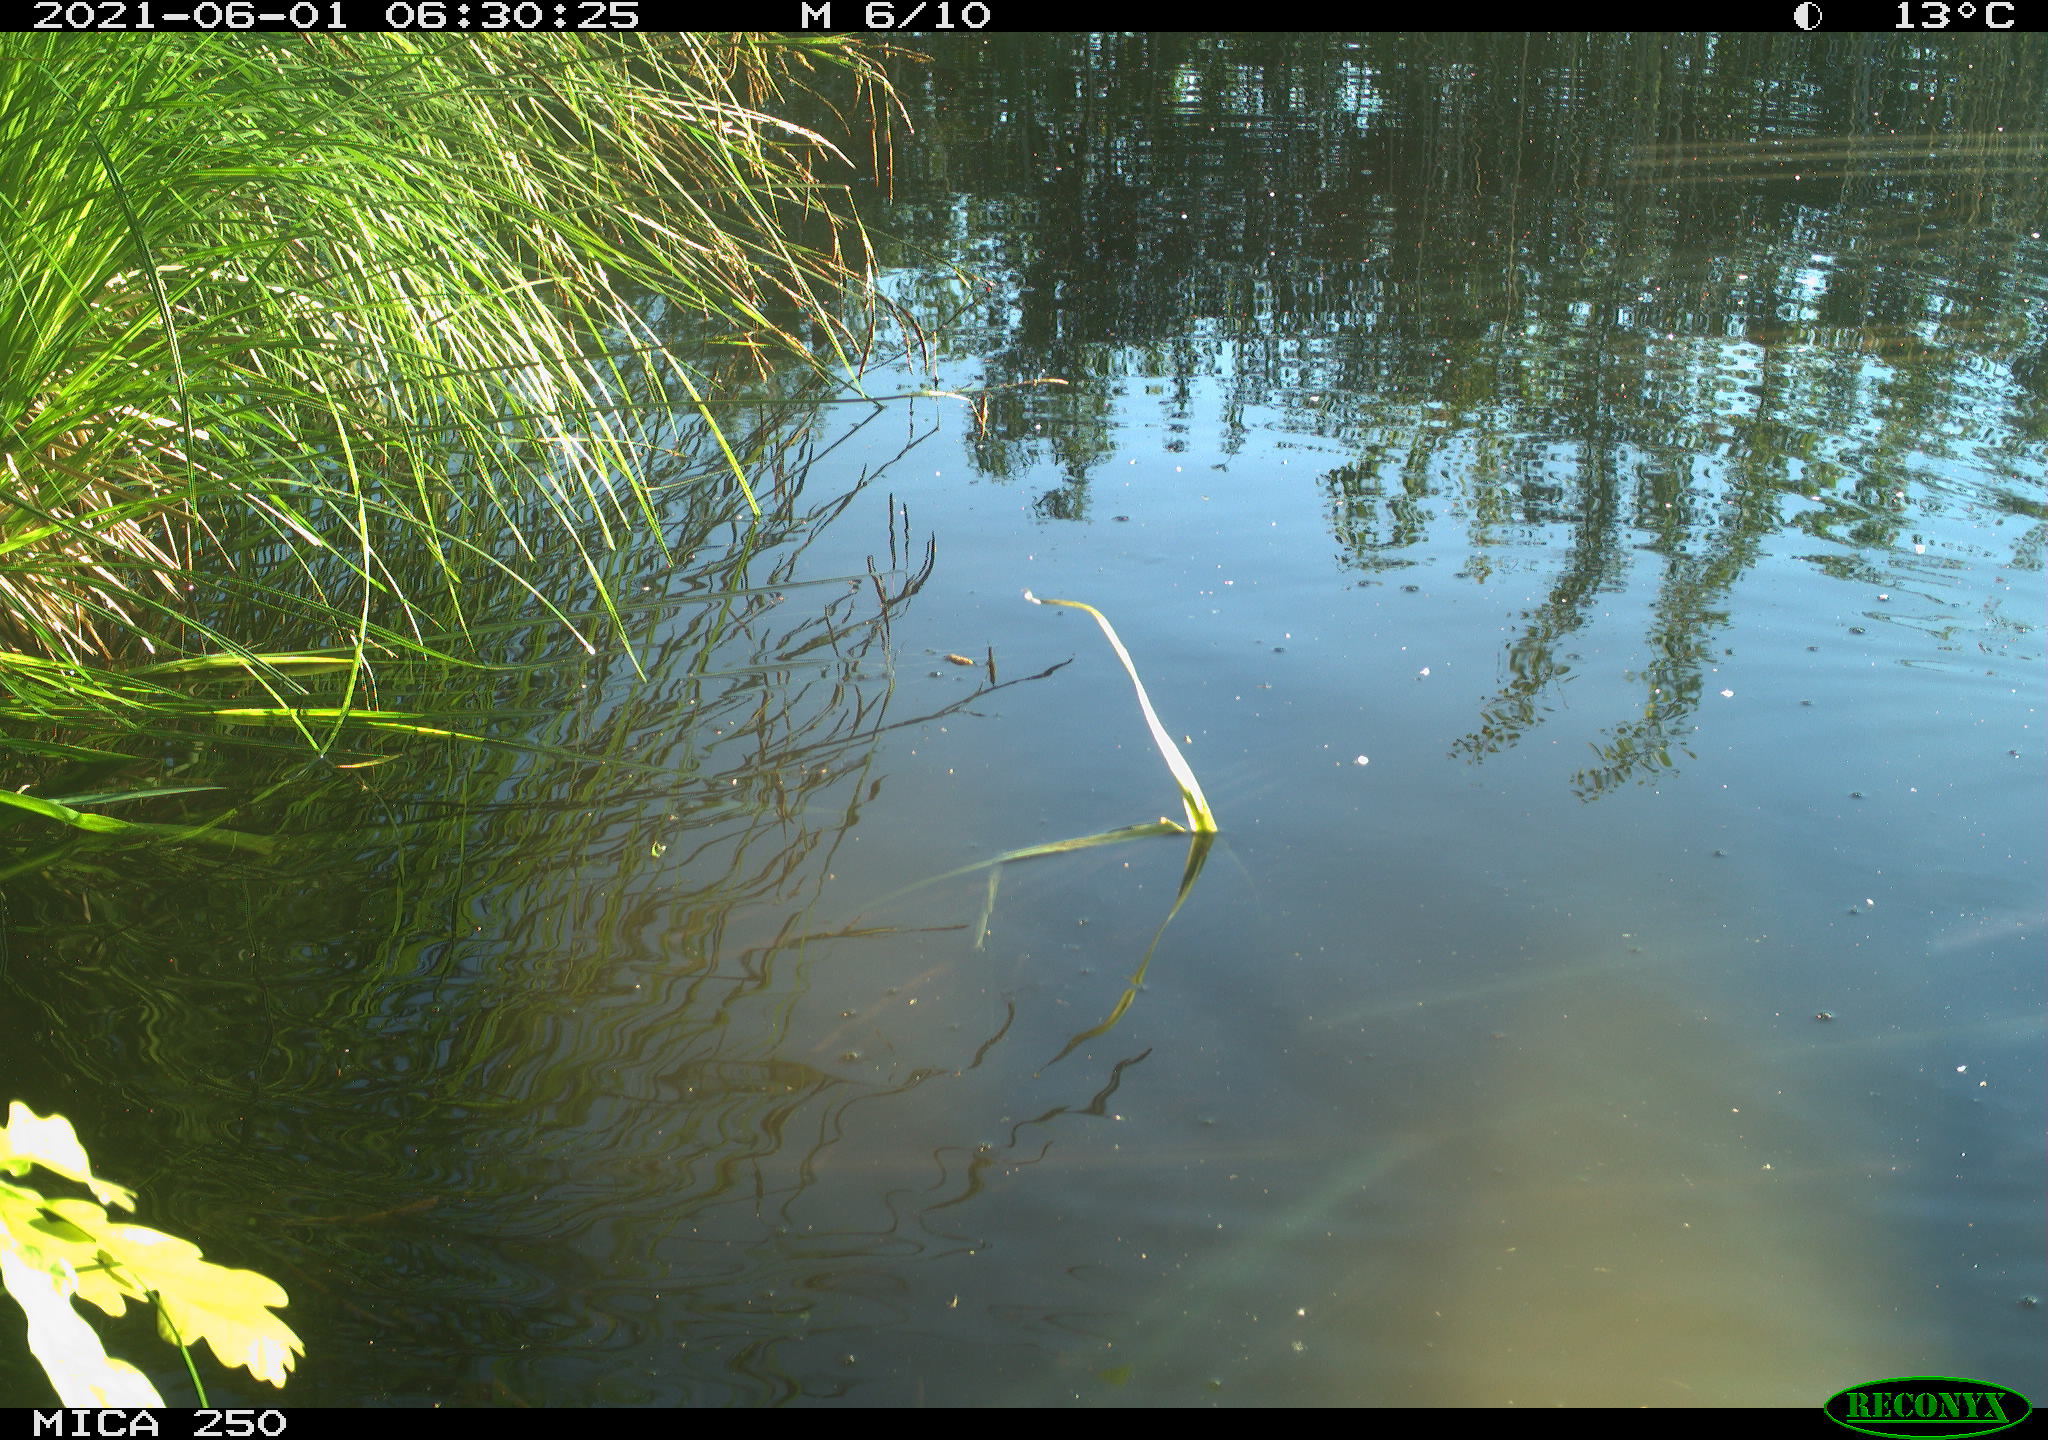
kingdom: Animalia
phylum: Chordata
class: Aves
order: Gruiformes
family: Rallidae
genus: Gallinula
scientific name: Gallinula chloropus
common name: Common moorhen
